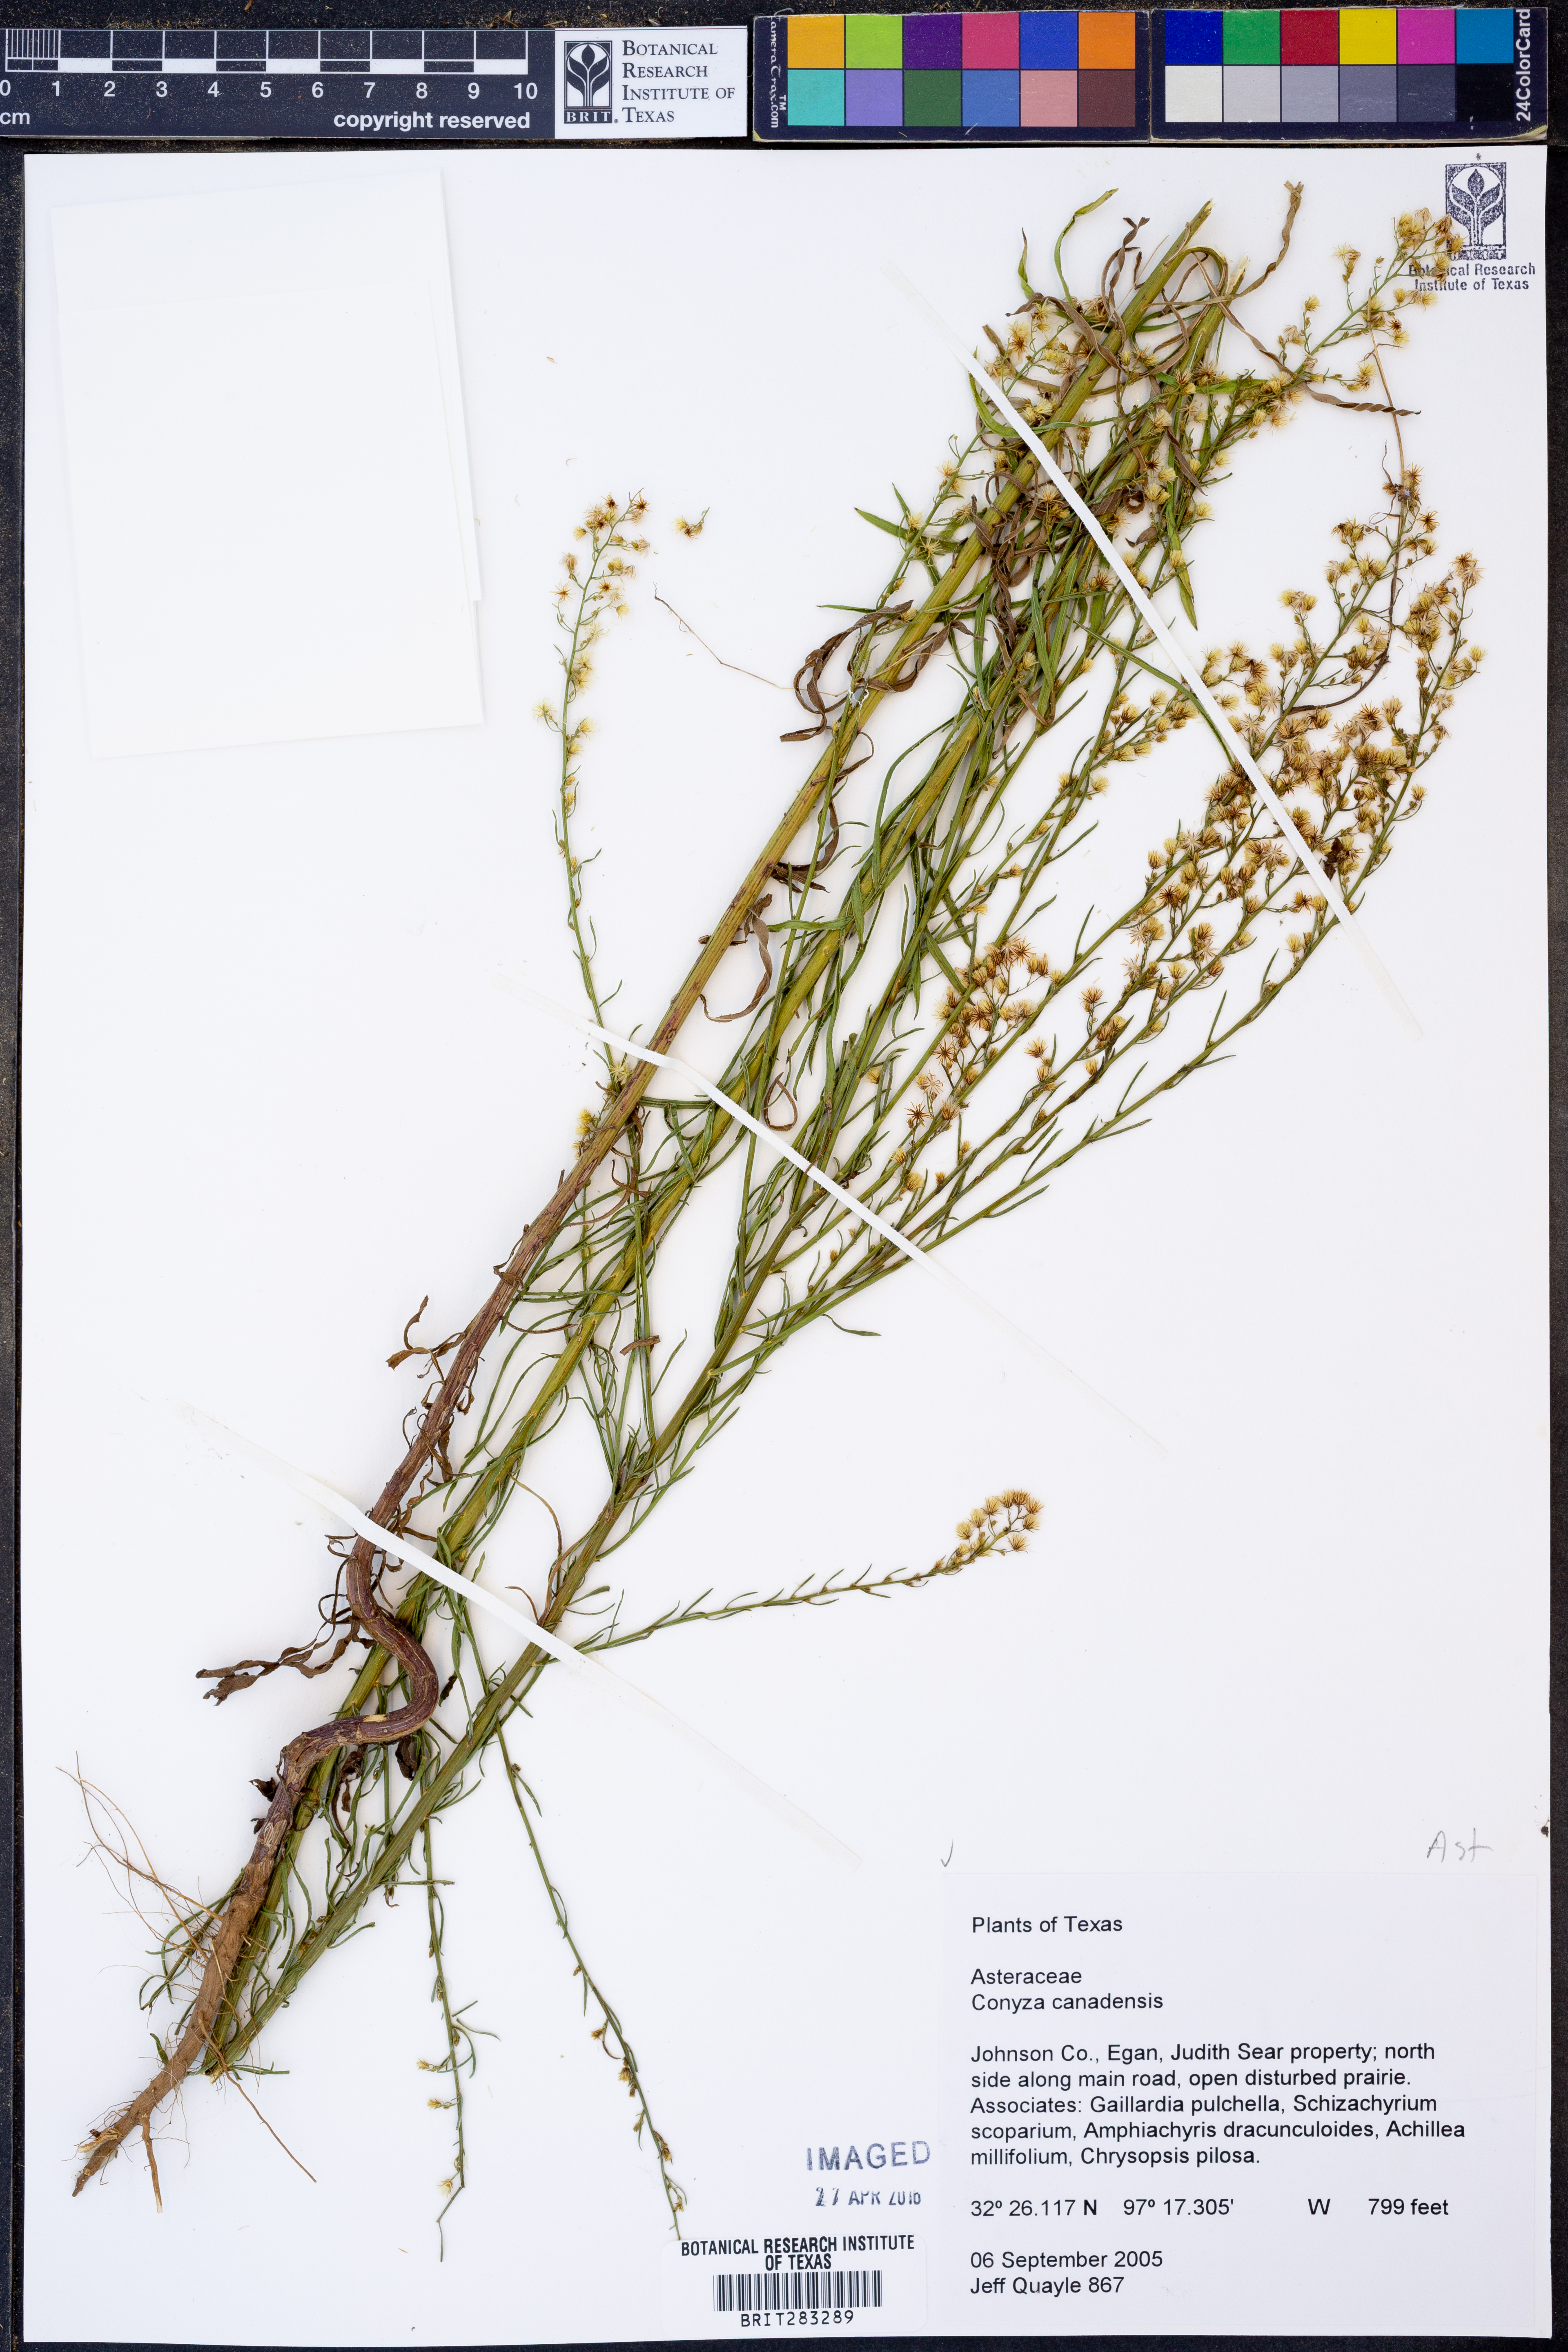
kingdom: Plantae
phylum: Tracheophyta
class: Magnoliopsida
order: Asterales
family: Asteraceae
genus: Erigeron
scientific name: Erigeron canadensis
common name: Canadian fleabane
